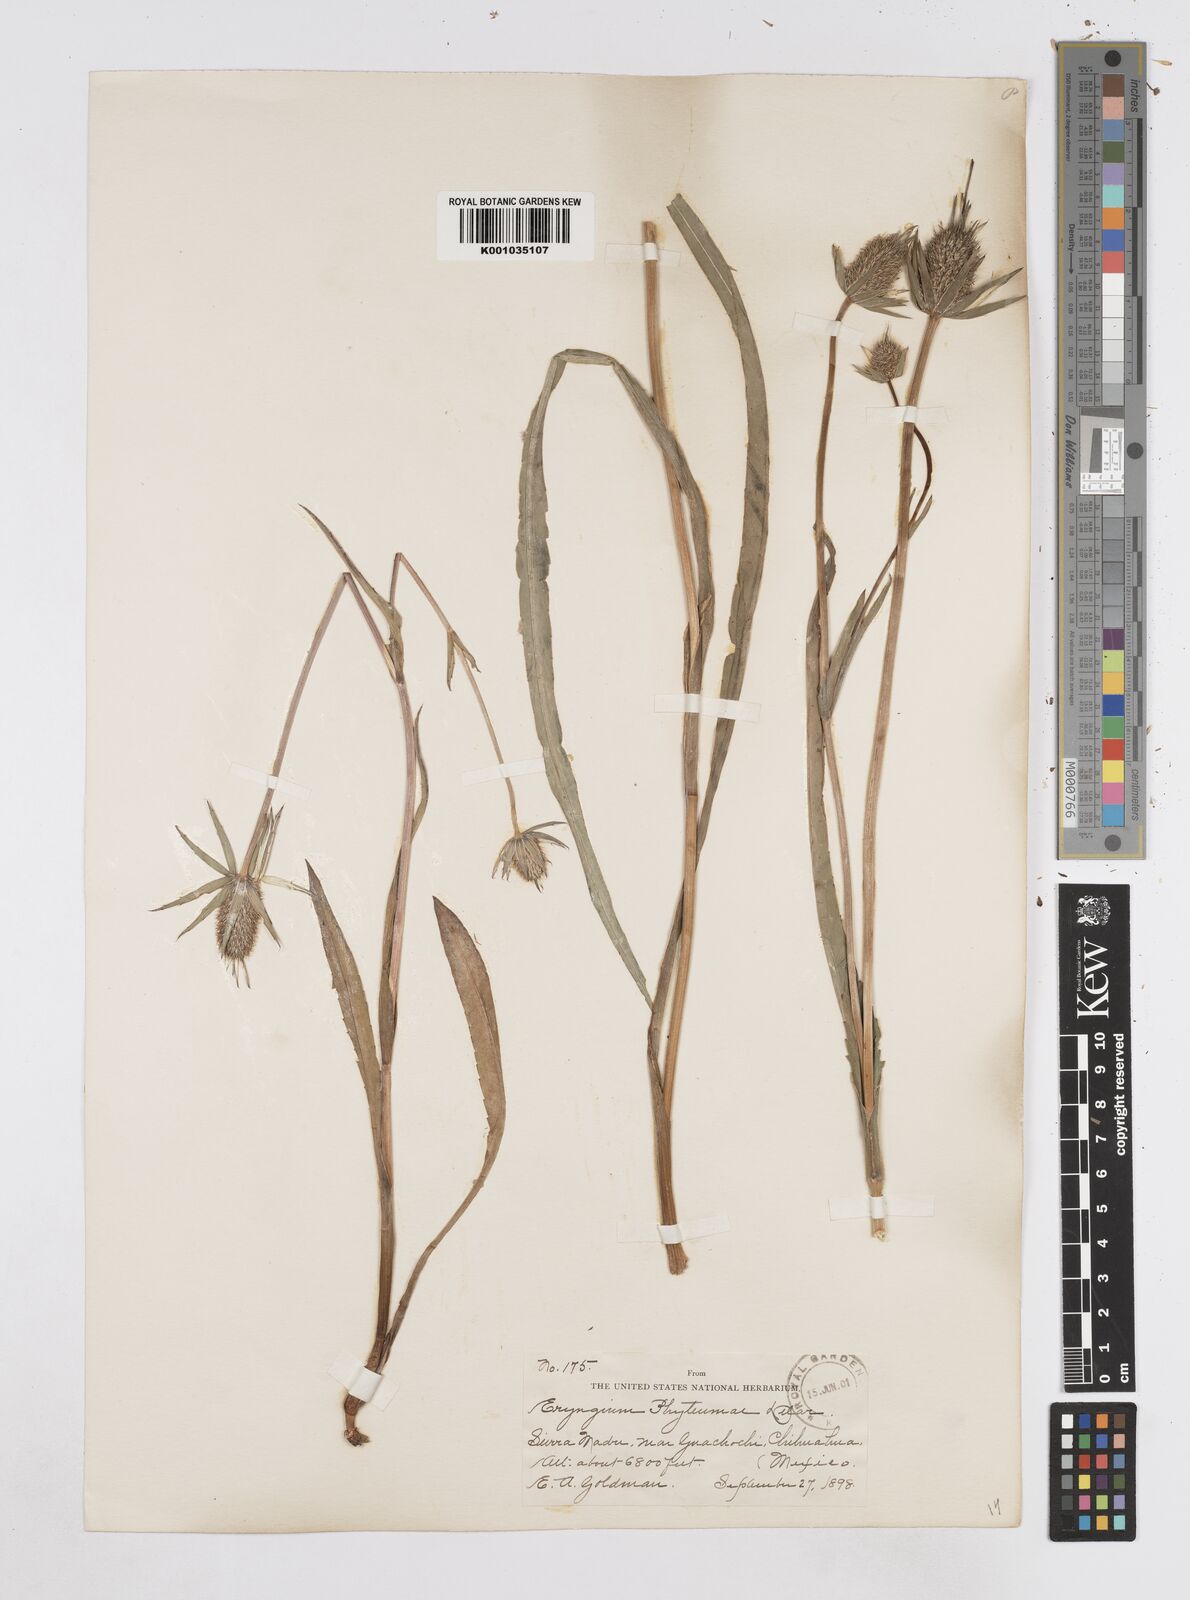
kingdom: Plantae
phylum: Tracheophyta
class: Magnoliopsida
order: Apiales
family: Apiaceae
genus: Eryngium
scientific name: Eryngium phyteumae
